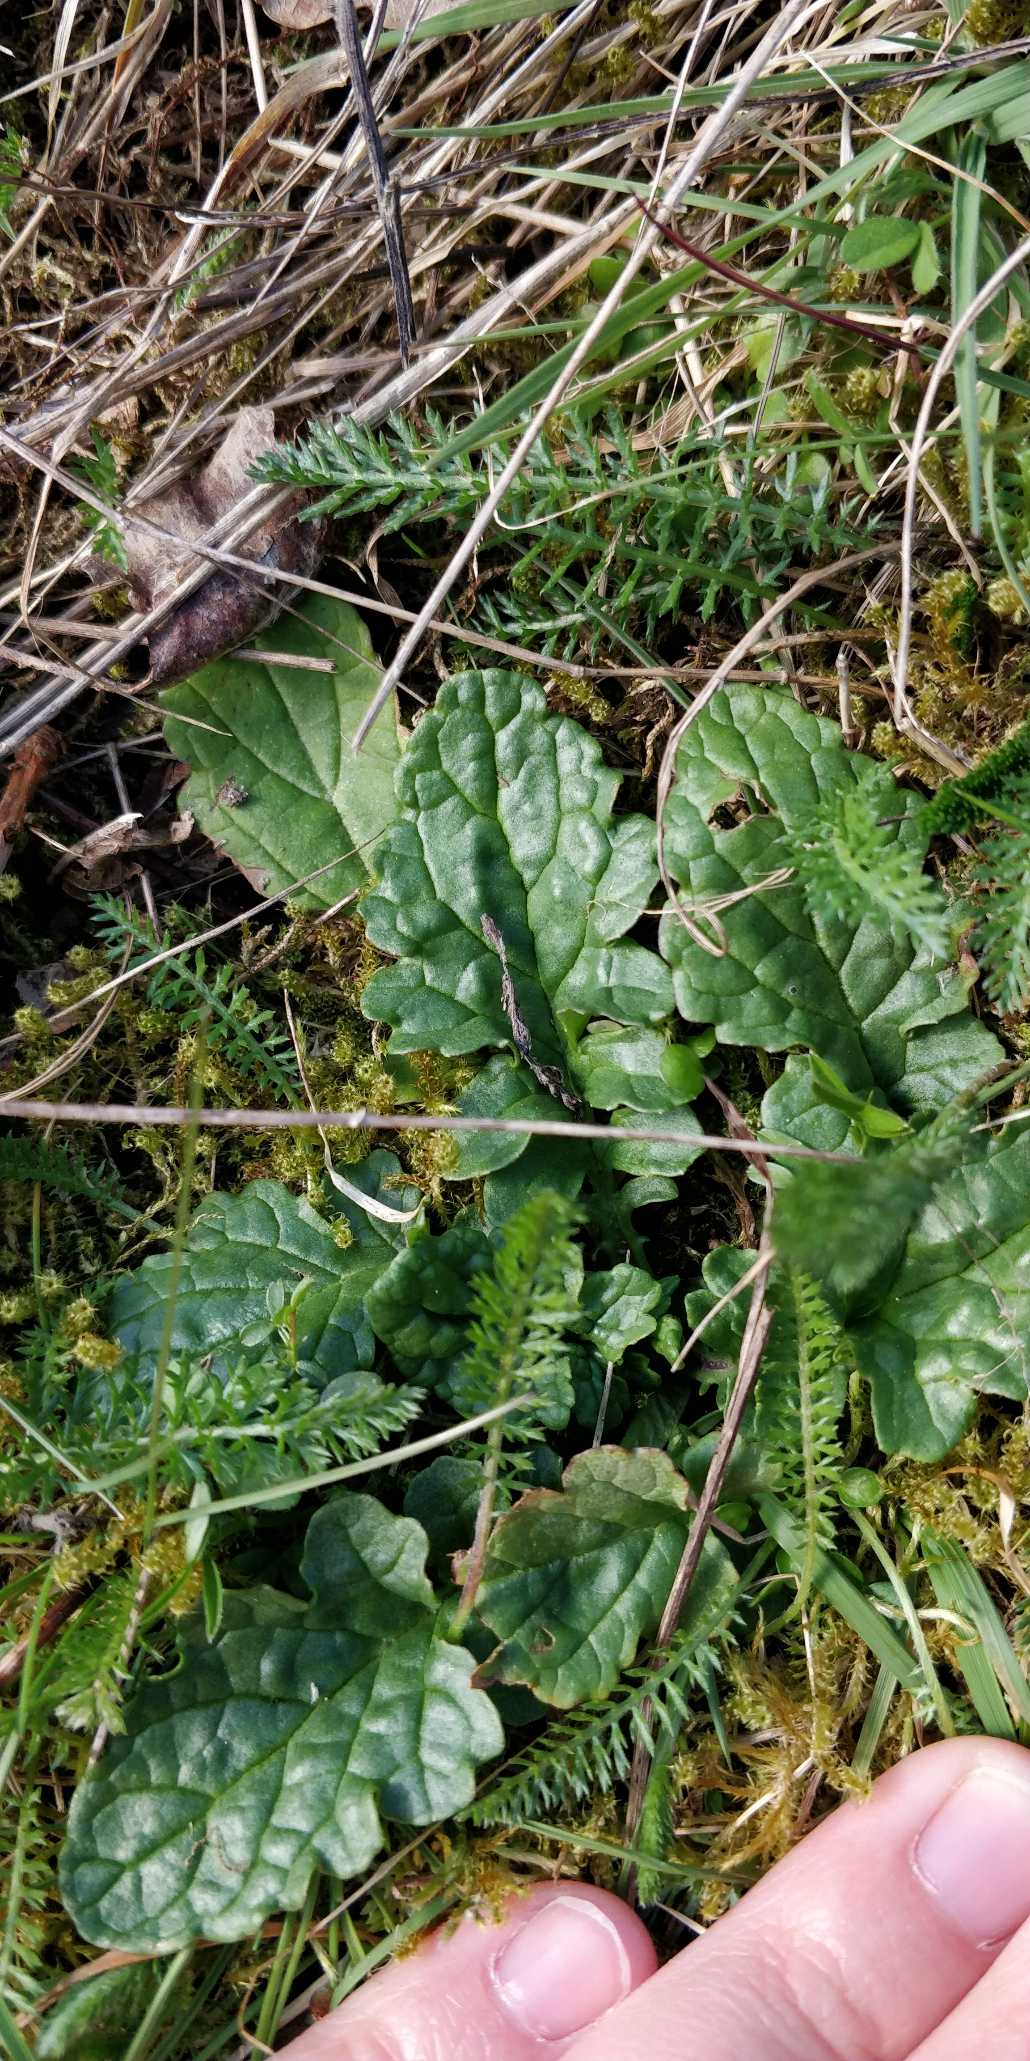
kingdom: Plantae
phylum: Tracheophyta
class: Magnoliopsida
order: Asterales
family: Asteraceae
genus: Jacobaea
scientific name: Jacobaea vulgaris
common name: Eng-brandbæger
